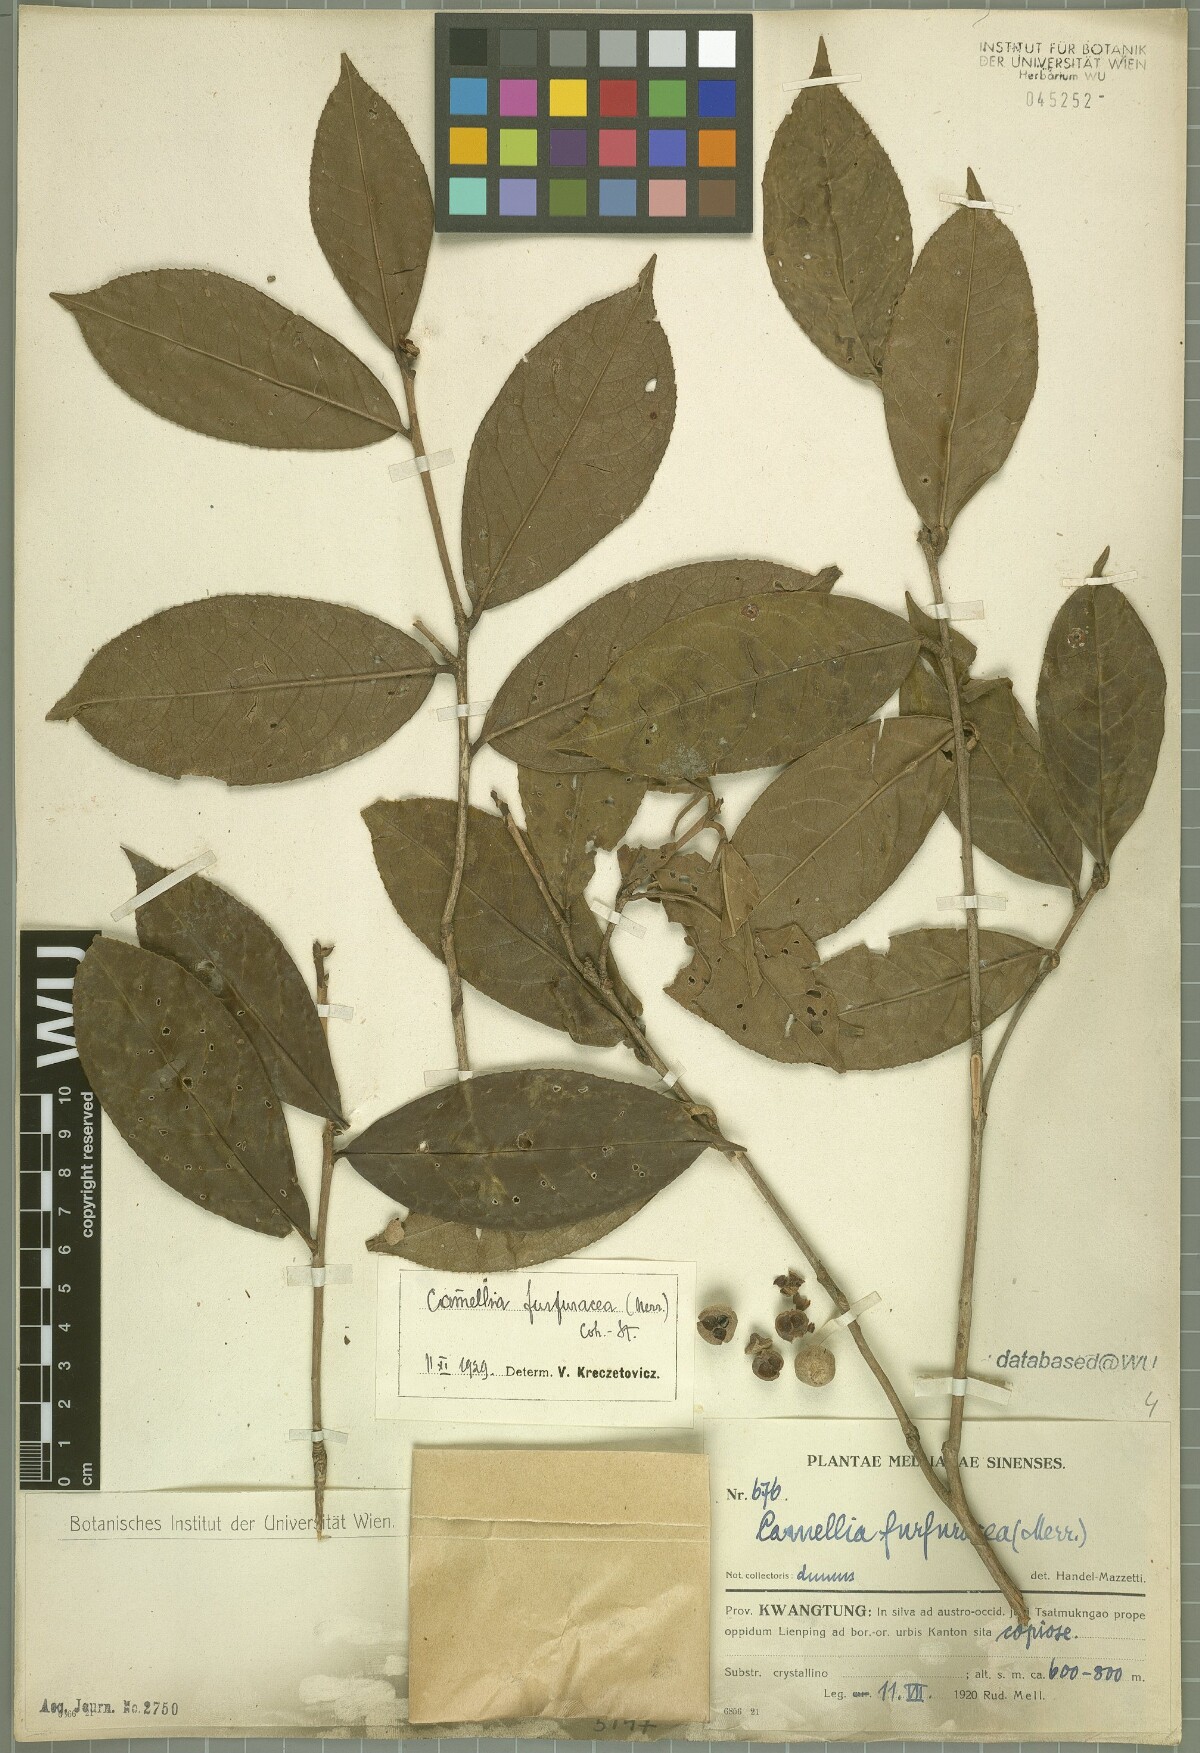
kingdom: Plantae
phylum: Tracheophyta
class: Magnoliopsida
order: Ericales
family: Theaceae
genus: Camellia
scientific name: Camellia furfuracea
